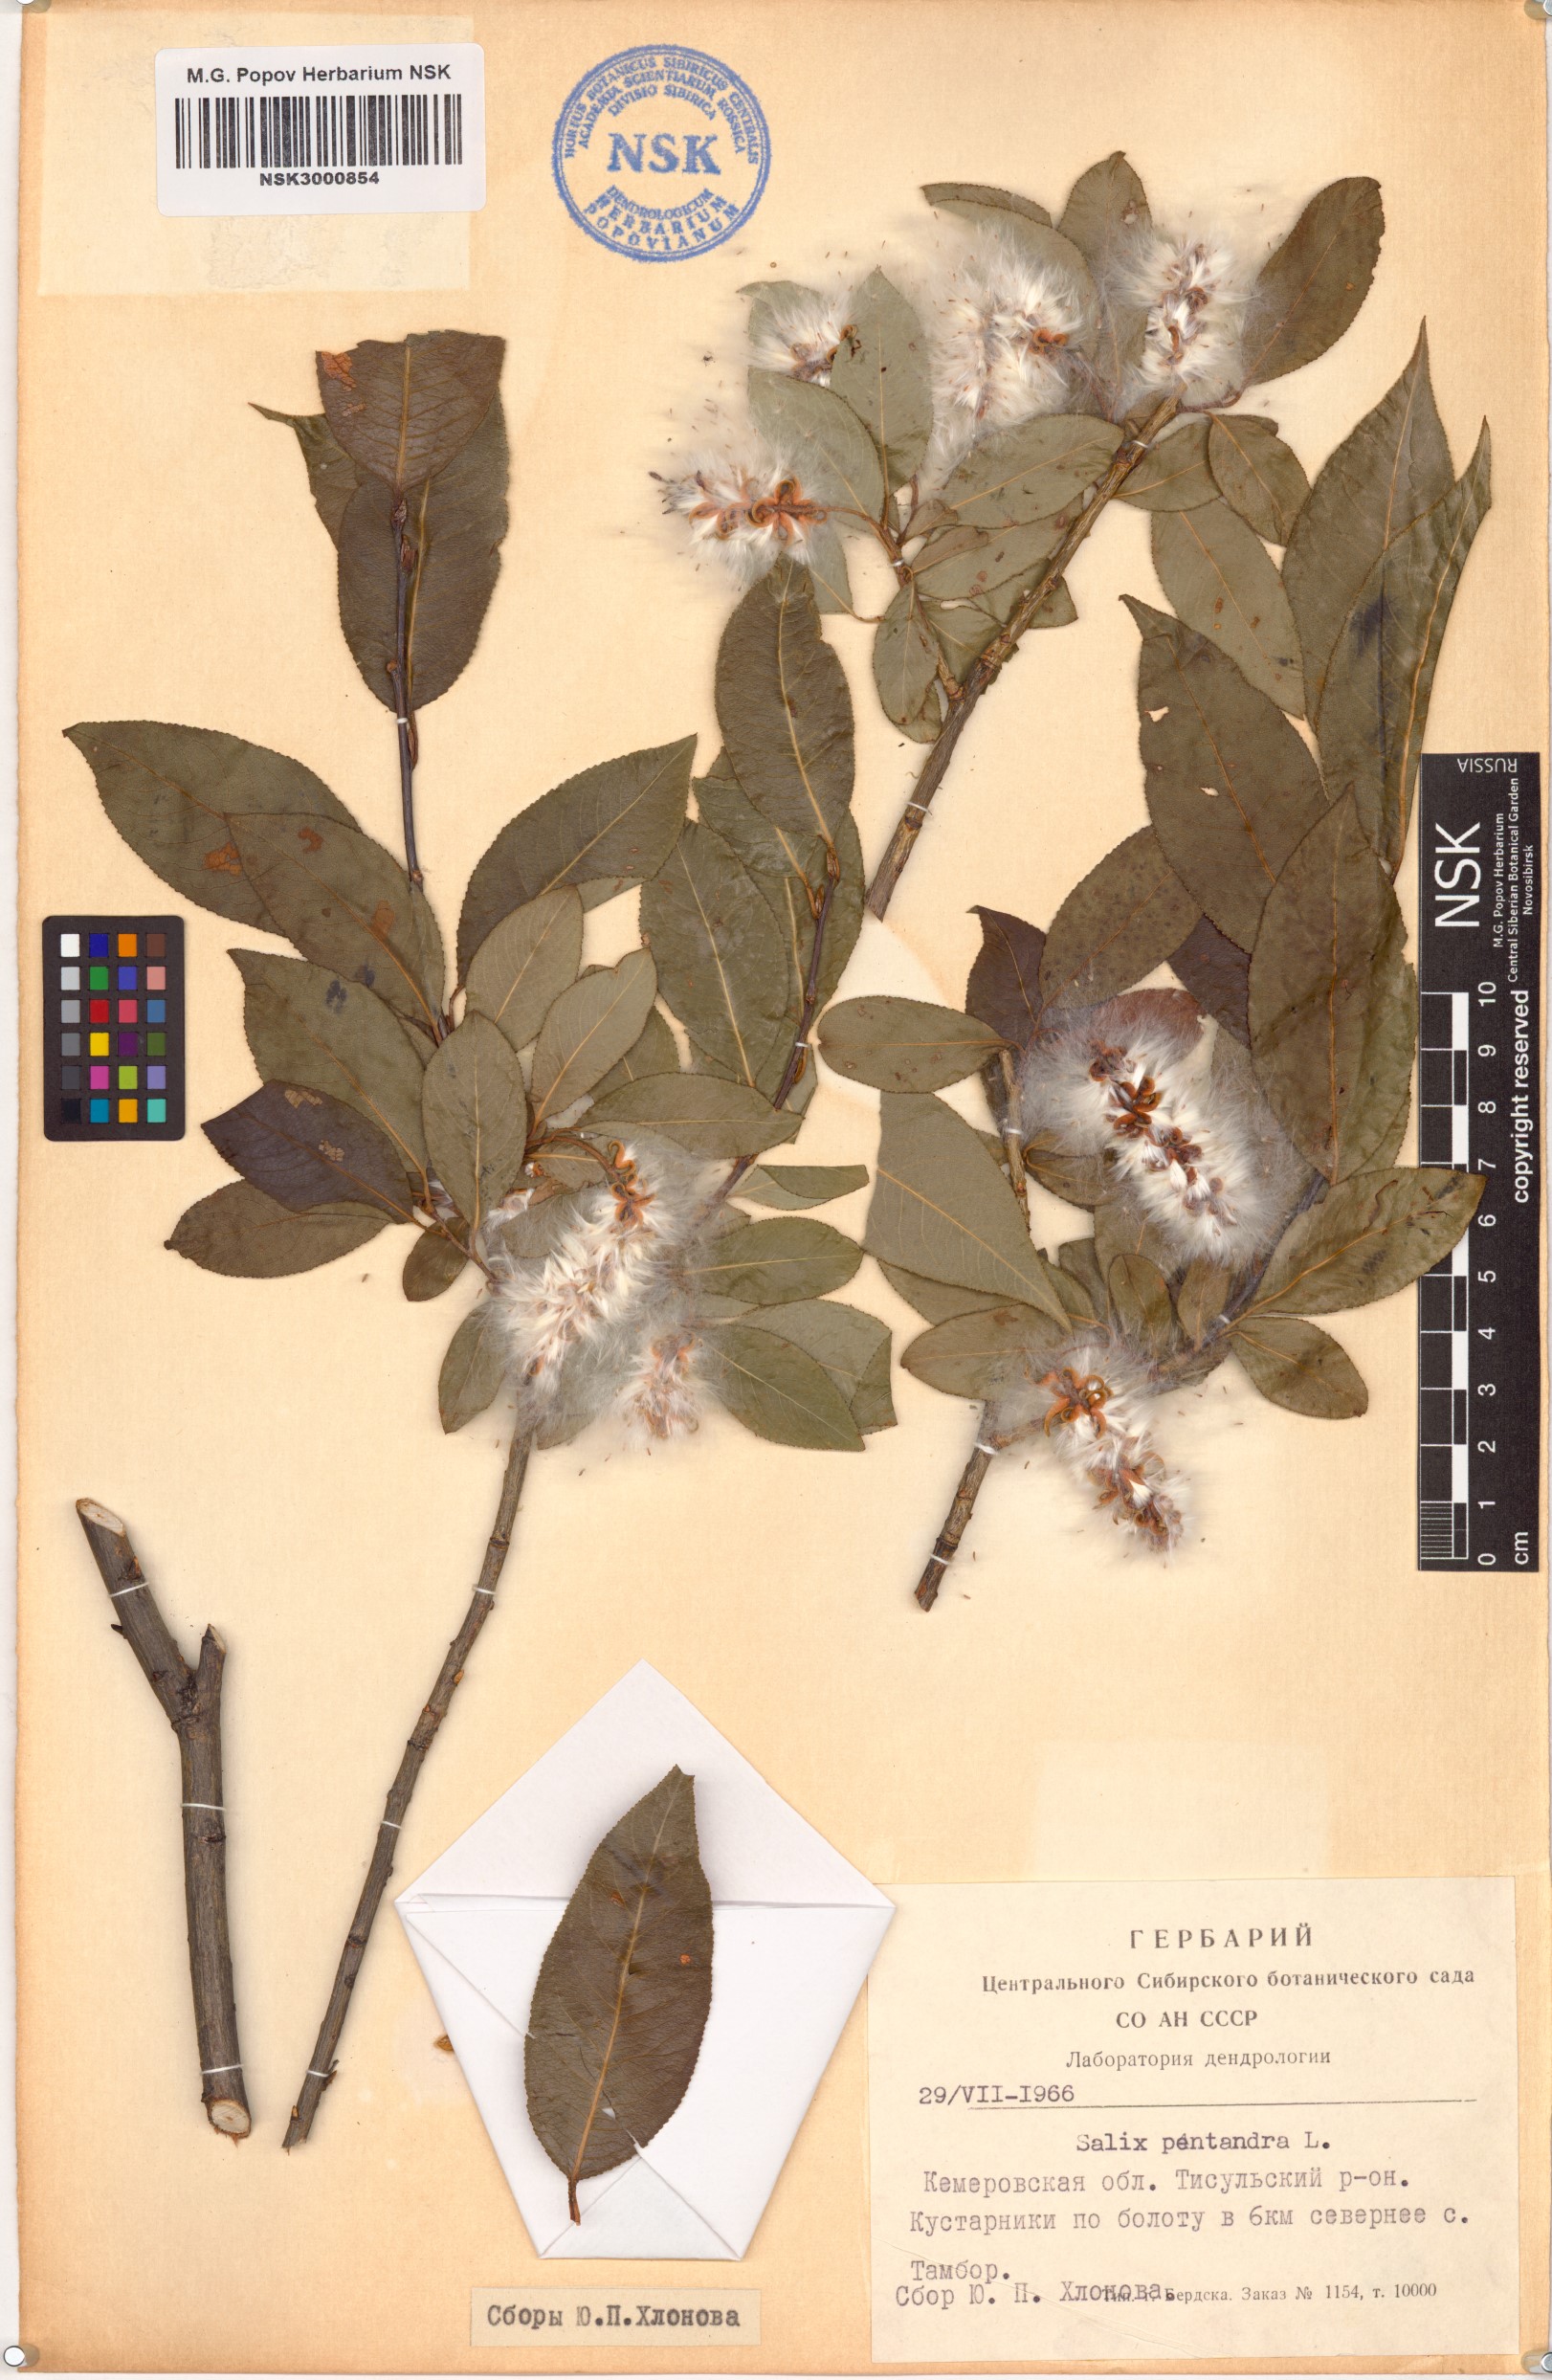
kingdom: Plantae
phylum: Tracheophyta
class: Magnoliopsida
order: Malpighiales
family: Salicaceae
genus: Salix
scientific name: Salix pentandra
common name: Bay willow
